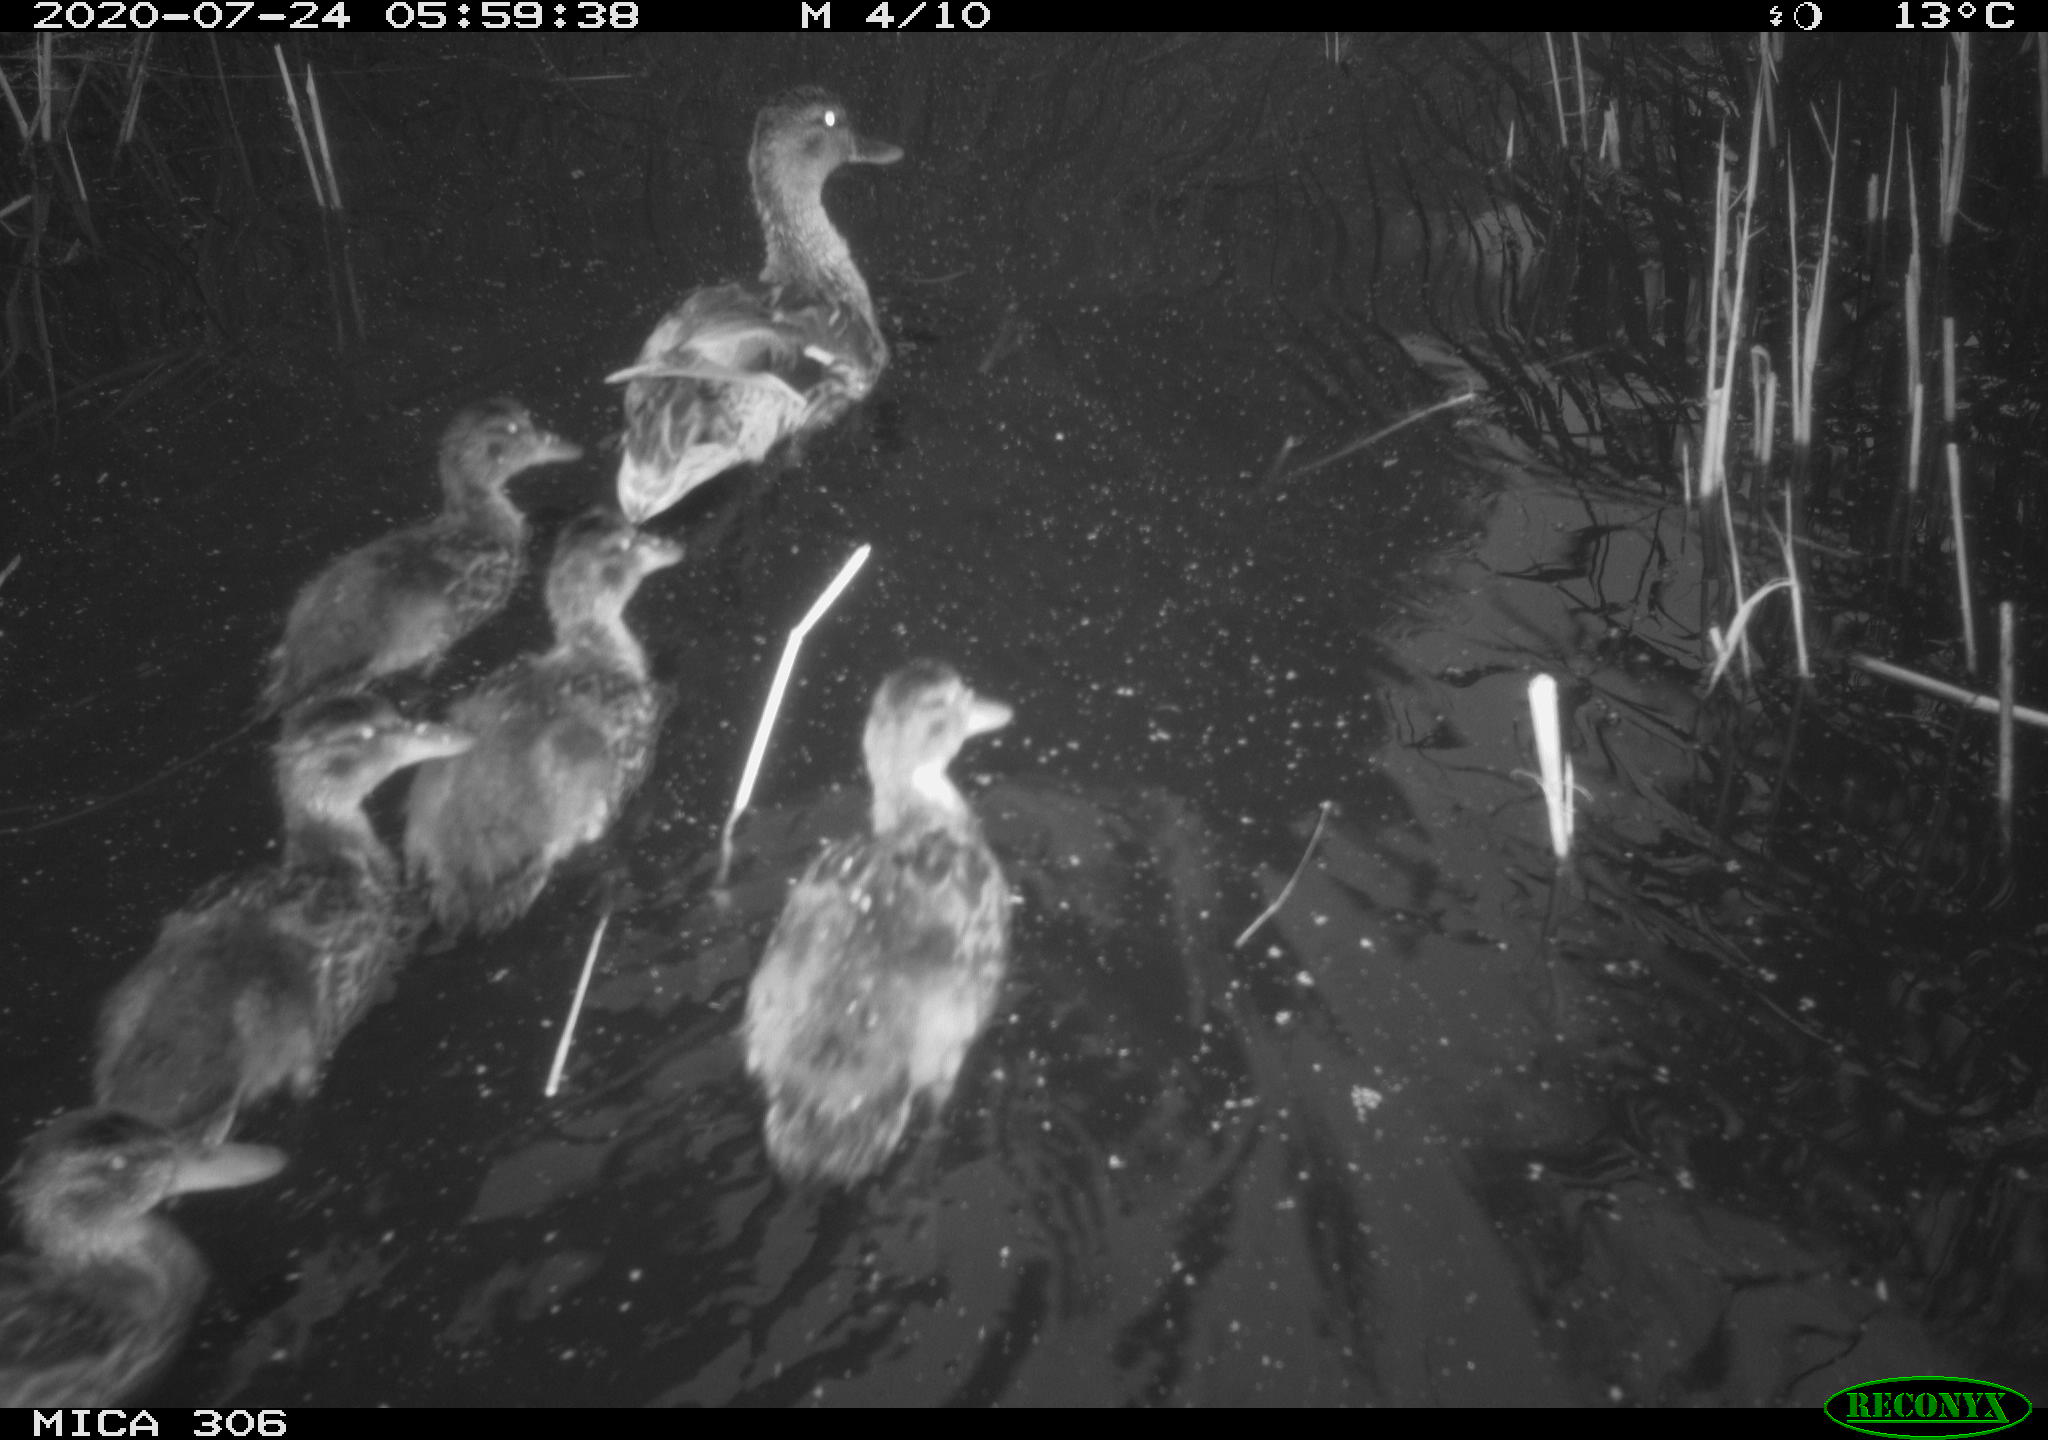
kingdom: Animalia
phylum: Chordata
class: Aves
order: Anseriformes
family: Anatidae
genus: Anas
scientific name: Anas platyrhynchos
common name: Mallard
